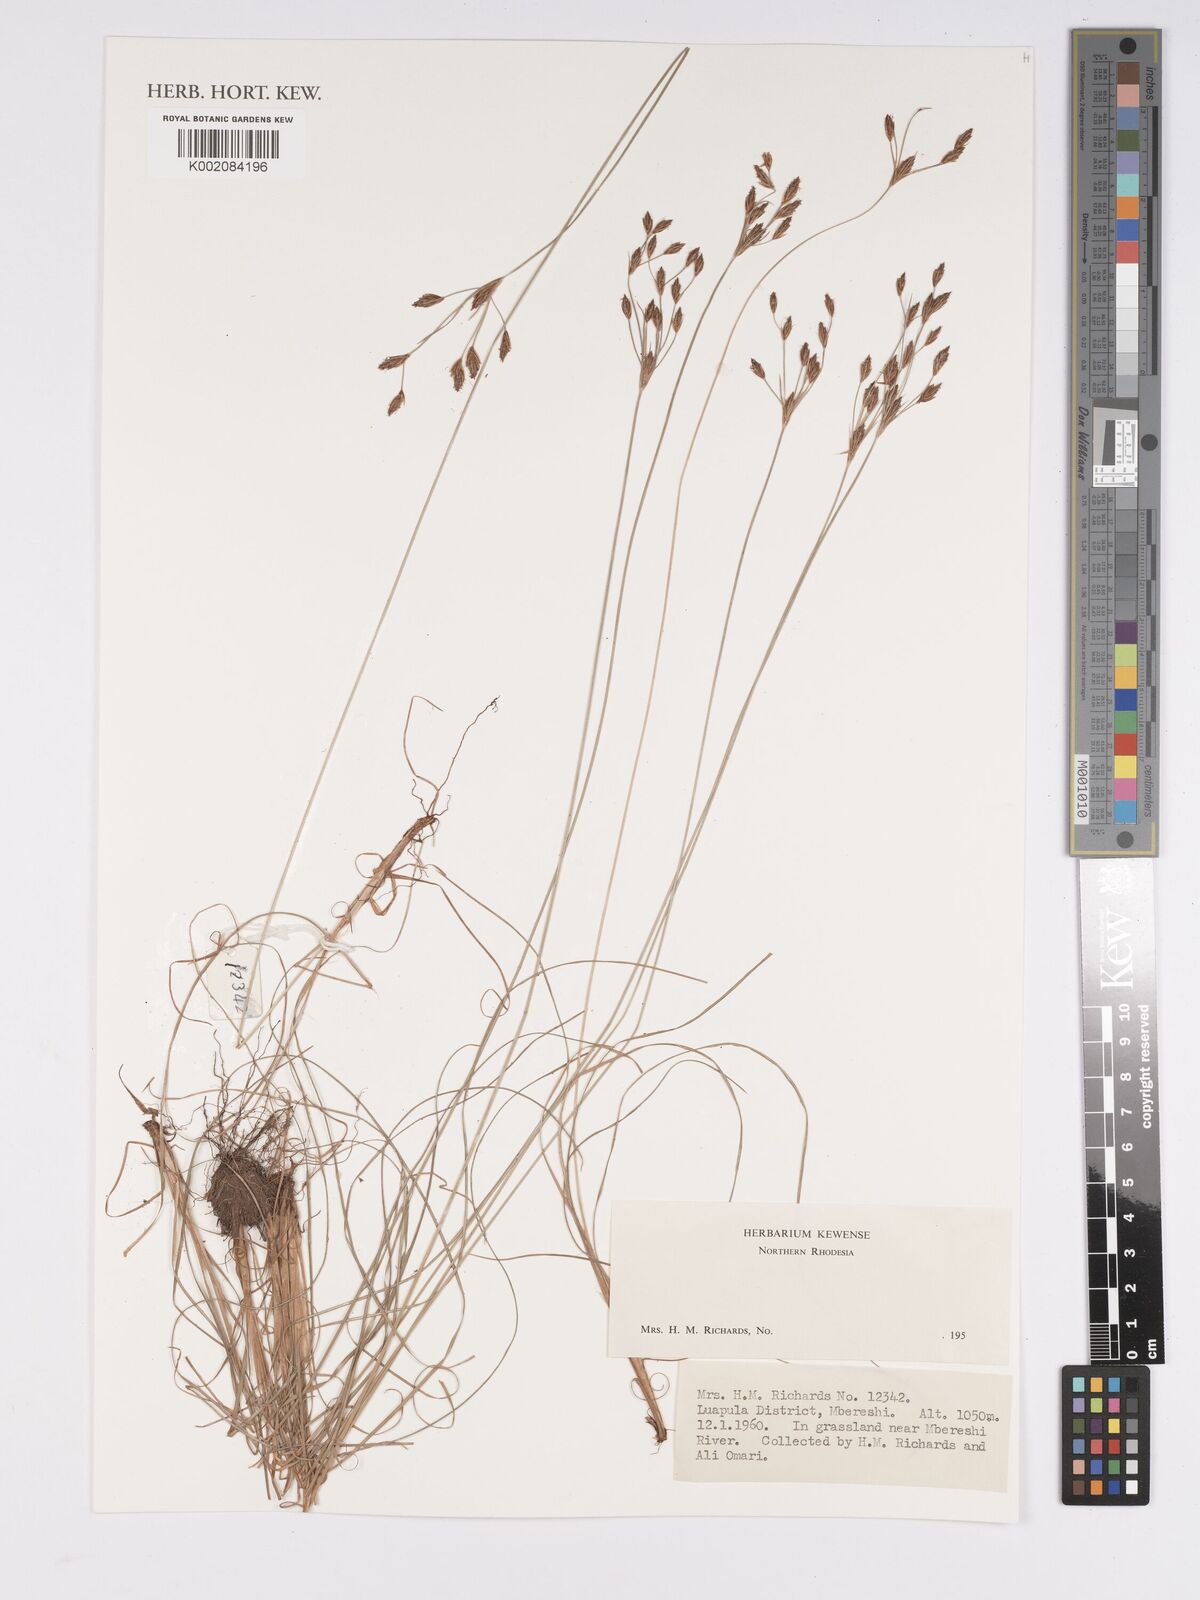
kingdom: Plantae
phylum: Tracheophyta
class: Liliopsida
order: Poales
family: Cyperaceae
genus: Bulbostylis
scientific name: Bulbostylis
